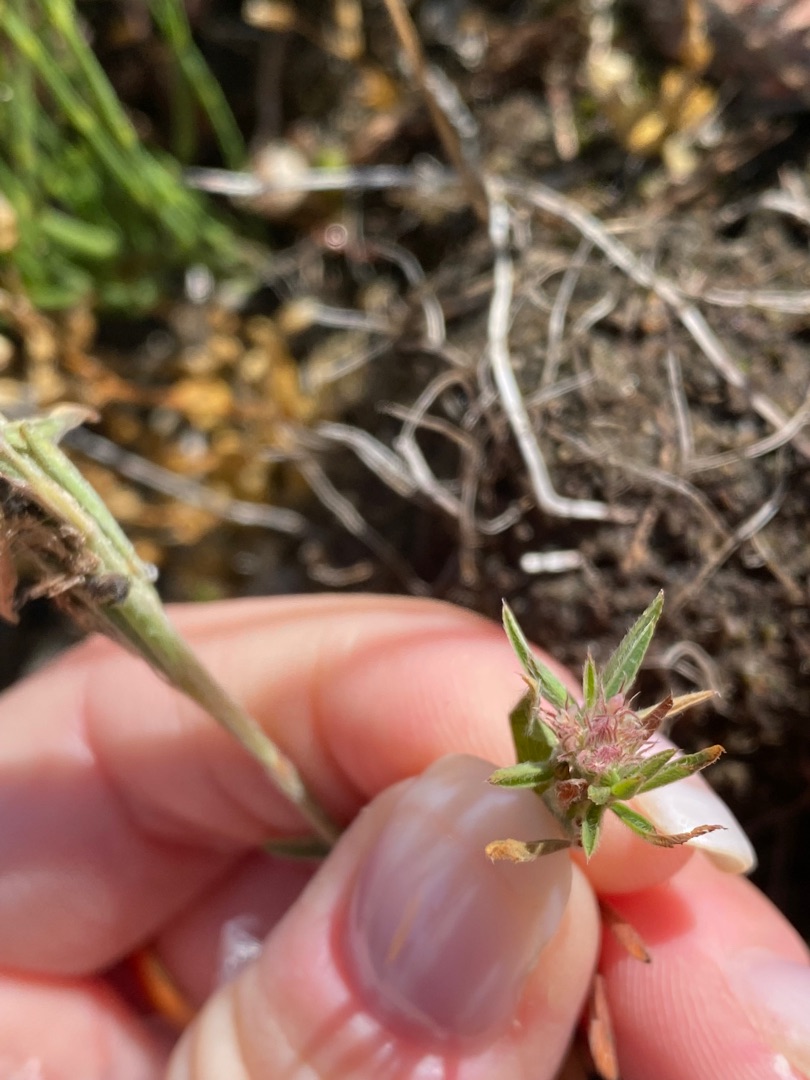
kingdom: Plantae
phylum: Tracheophyta
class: Magnoliopsida
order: Fabales
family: Fabaceae
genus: Trifolium
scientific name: Trifolium arvense
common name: Hare-kløver
